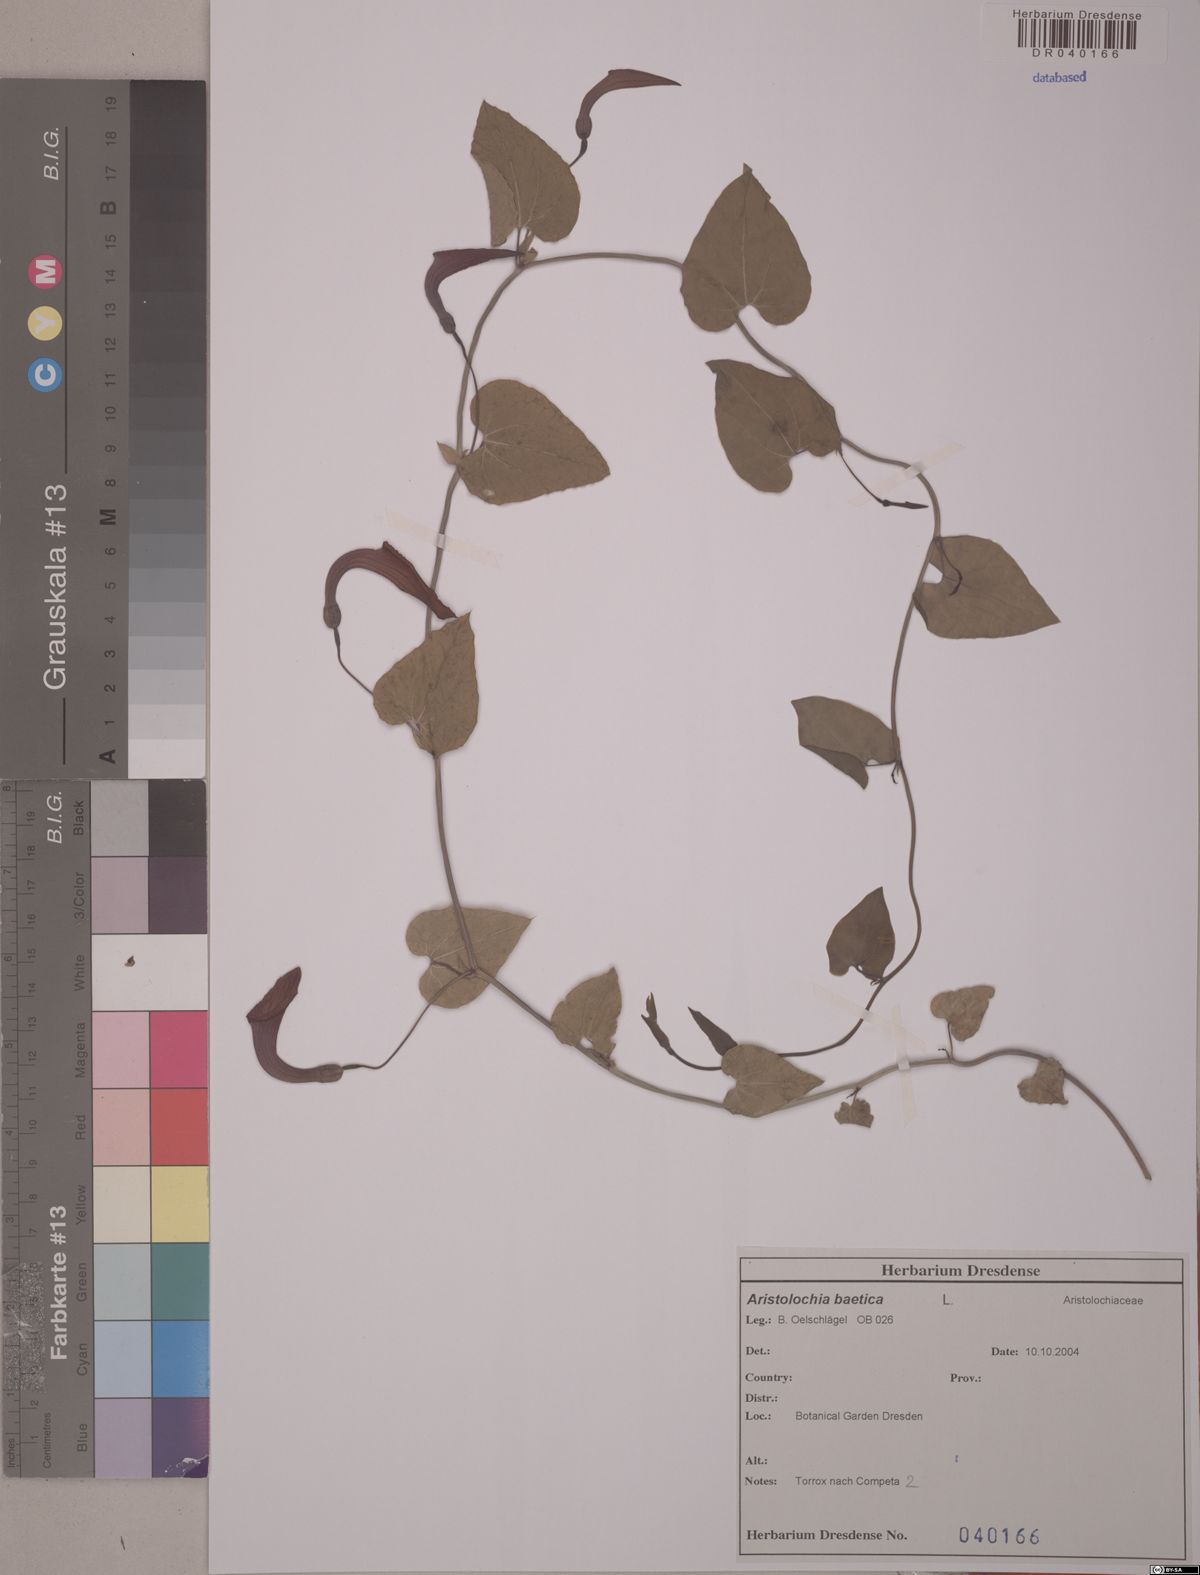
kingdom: Plantae
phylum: Tracheophyta
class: Magnoliopsida
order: Piperales
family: Aristolochiaceae
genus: Aristolochia
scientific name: Aristolochia baetica
